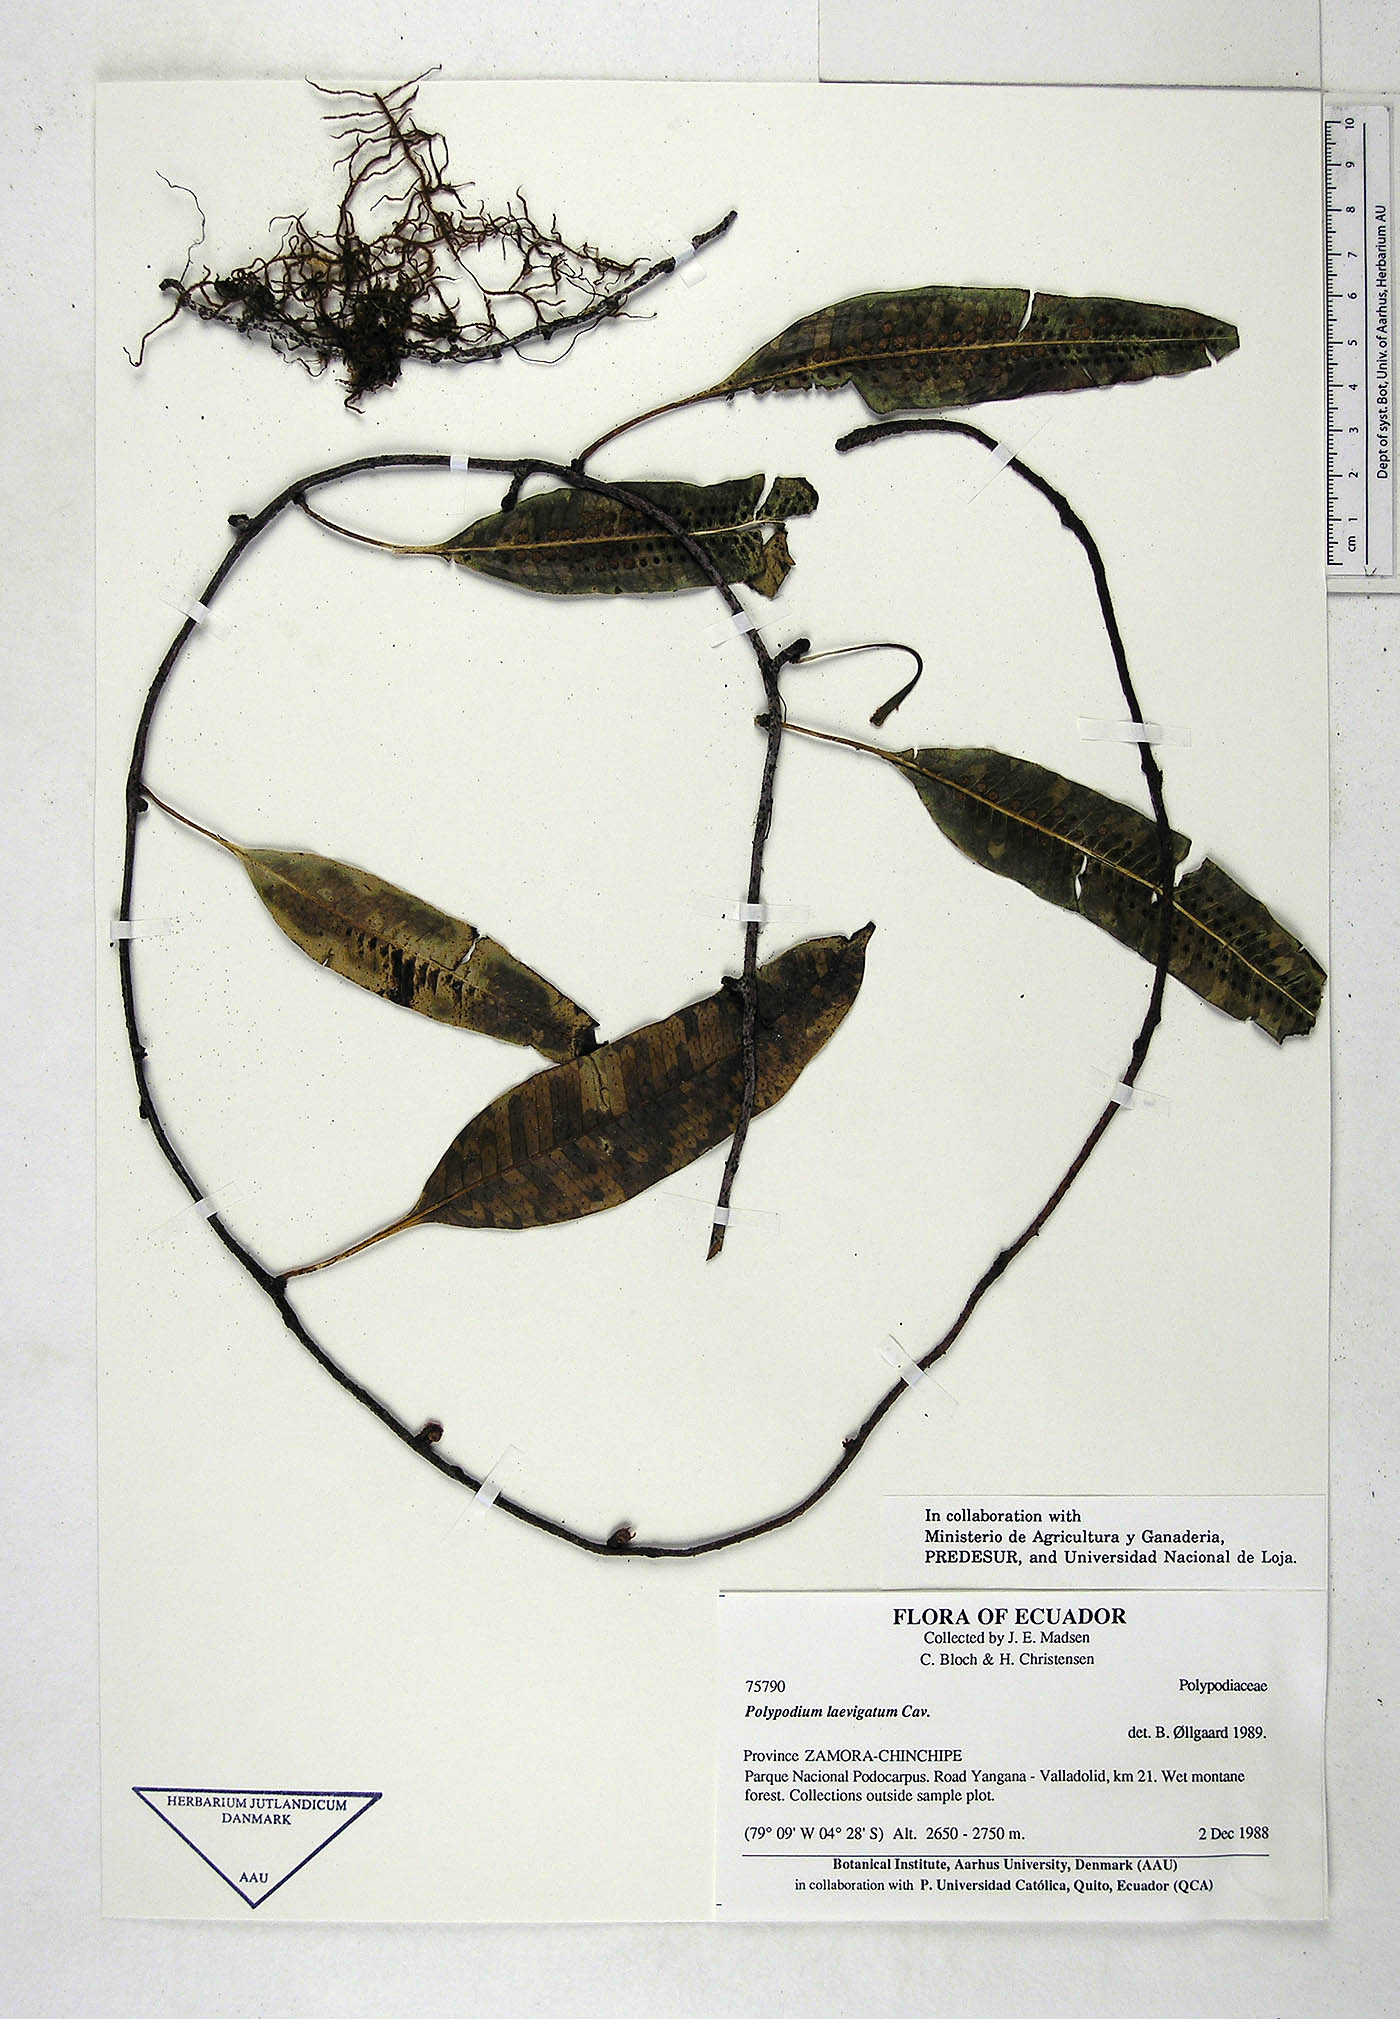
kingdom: Plantae
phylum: Tracheophyta
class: Polypodiopsida
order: Polypodiales
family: Polypodiaceae
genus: Serpocaulon
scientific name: Serpocaulon laevigatum
